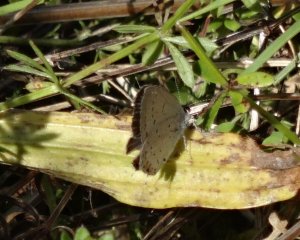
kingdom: Animalia
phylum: Arthropoda
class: Insecta
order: Lepidoptera
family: Lycaenidae
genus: Elkalyce
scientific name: Elkalyce comyntas
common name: Eastern Tailed-Blue
